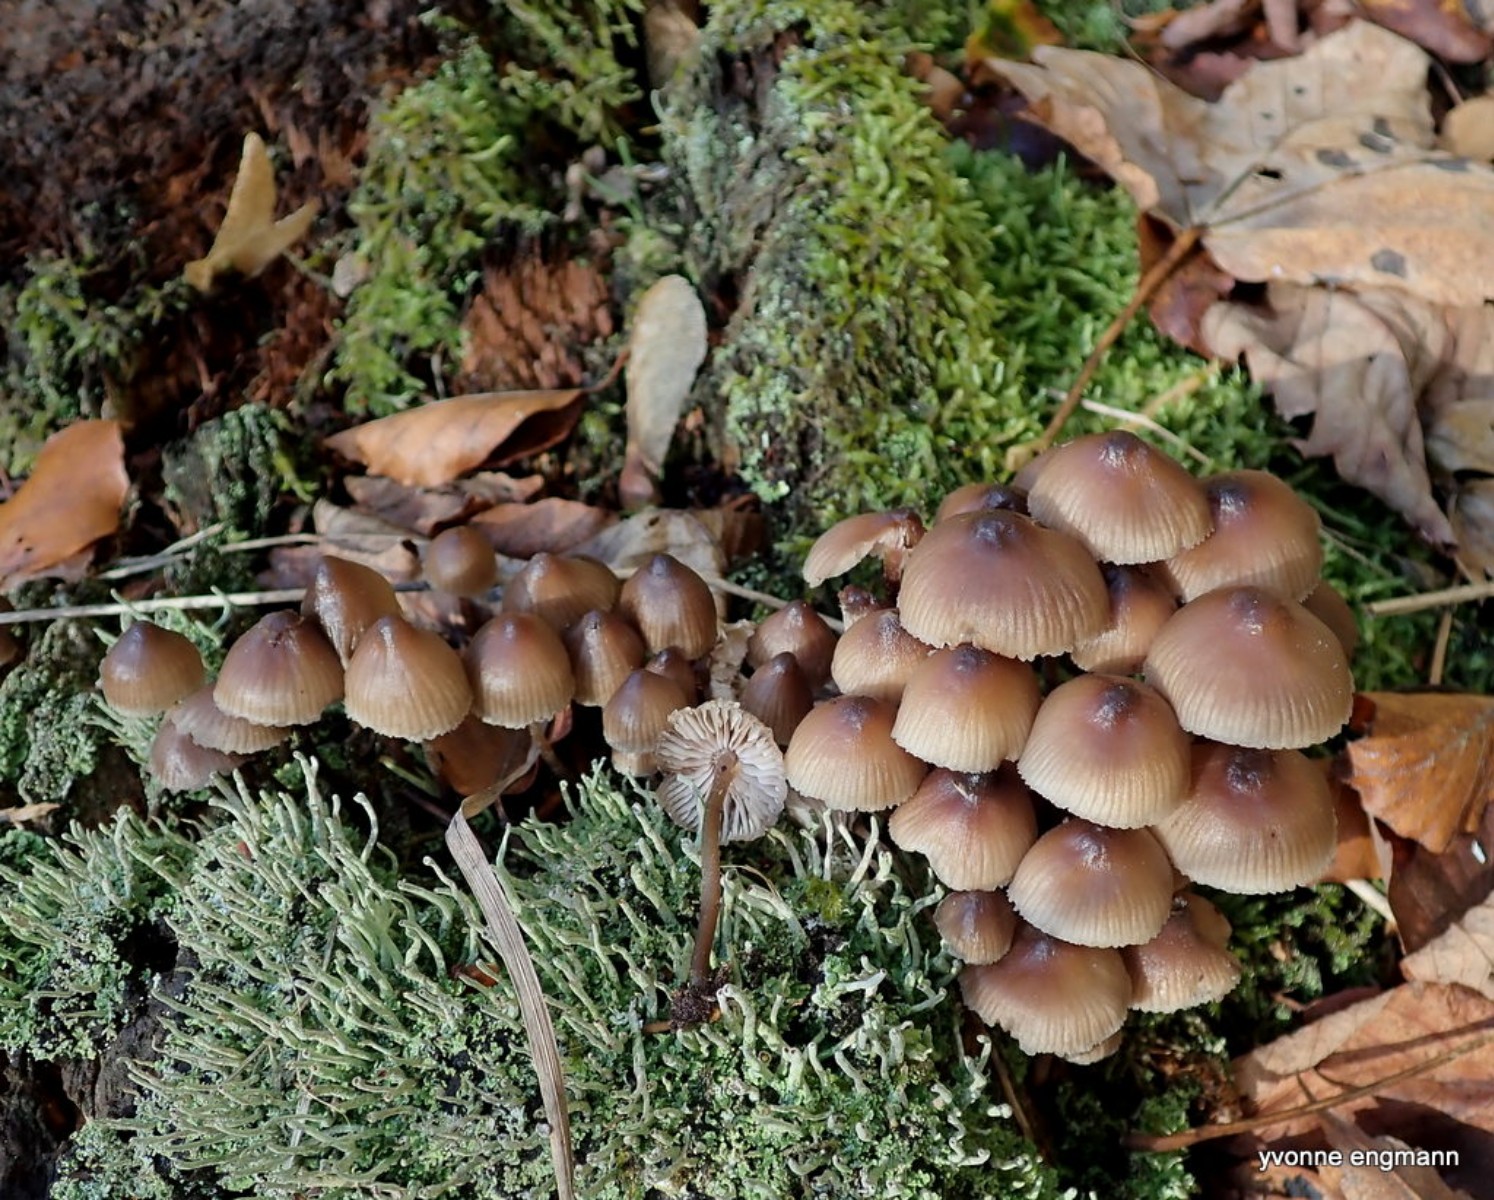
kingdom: Fungi
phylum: Basidiomycota
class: Agaricomycetes
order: Agaricales
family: Mycenaceae
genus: Mycena
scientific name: Mycena
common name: huesvamp
